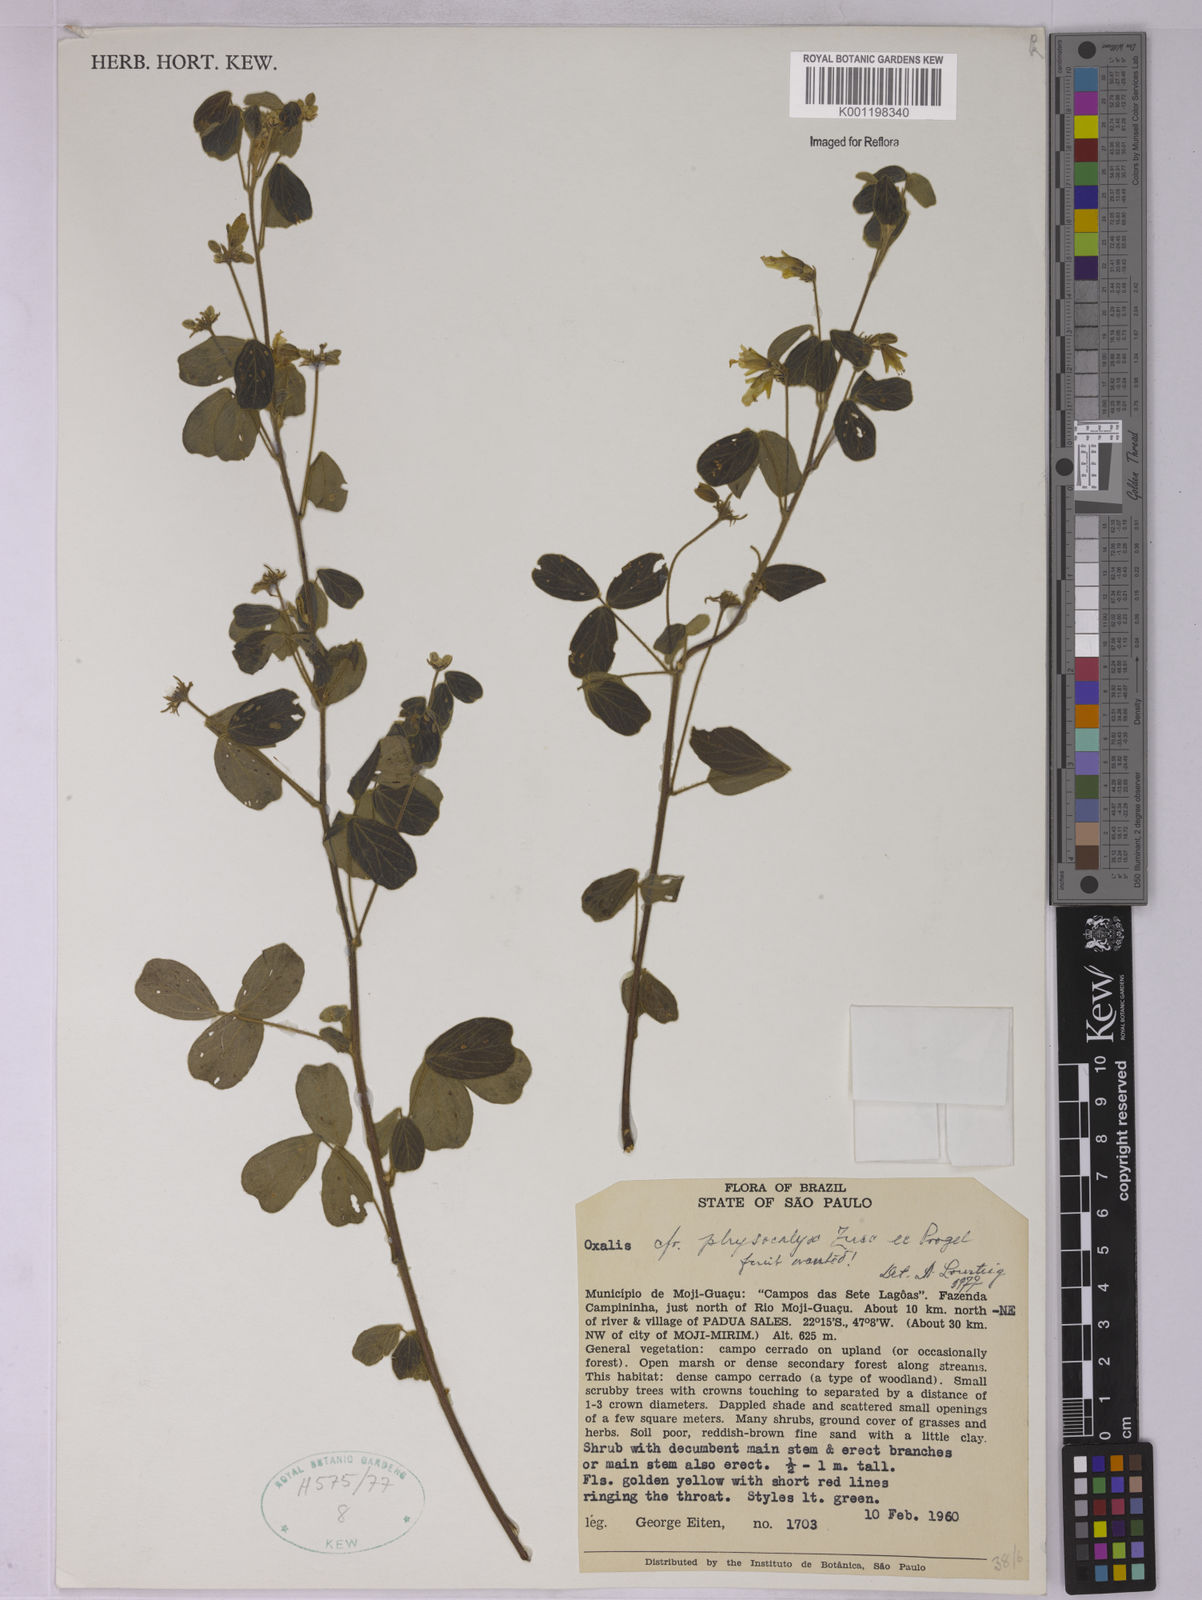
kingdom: Plantae
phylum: Tracheophyta
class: Magnoliopsida
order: Oxalidales
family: Oxalidaceae
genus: Oxalis
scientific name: Oxalis physocalyx
